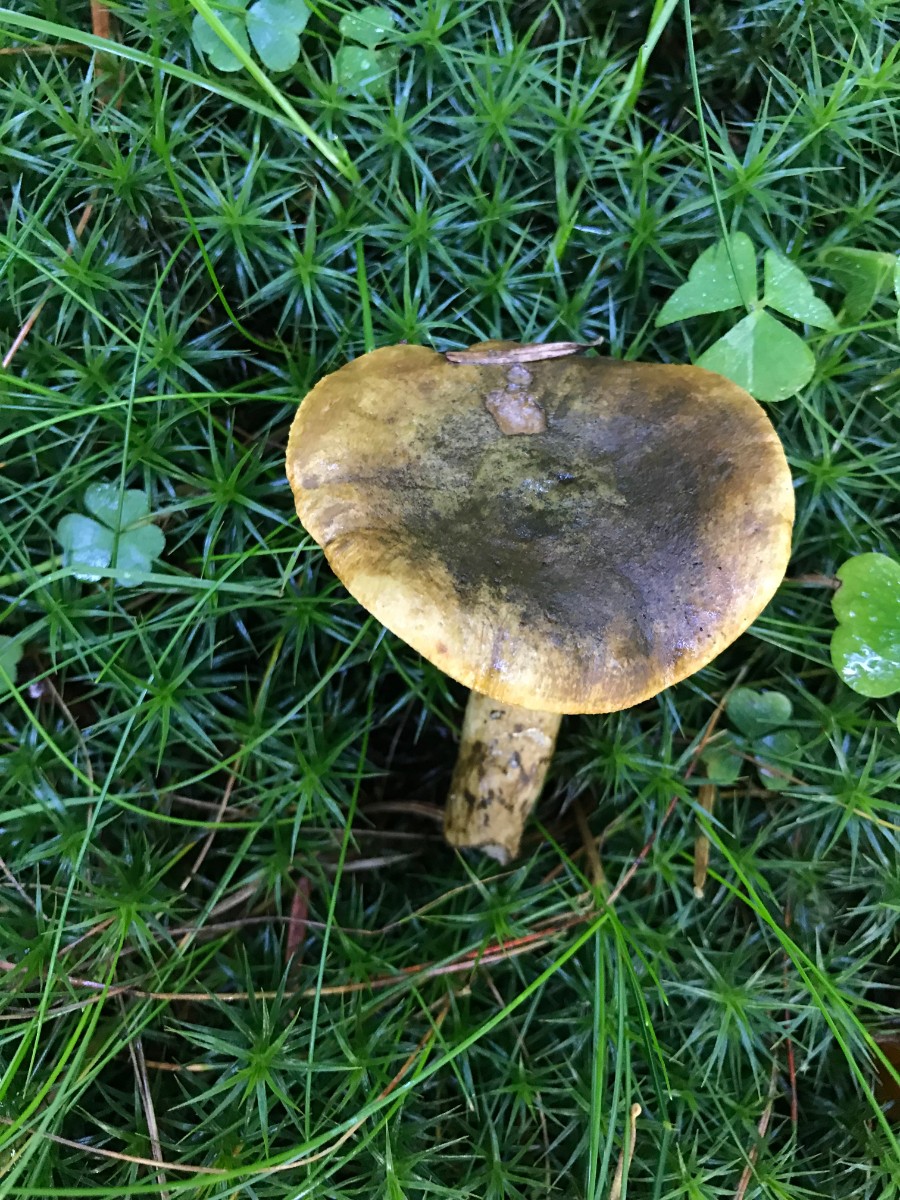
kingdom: Fungi
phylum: Basidiomycota
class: Agaricomycetes
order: Russulales
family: Russulaceae
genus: Lactarius
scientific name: Lactarius necator
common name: manddraber-mælkehat
